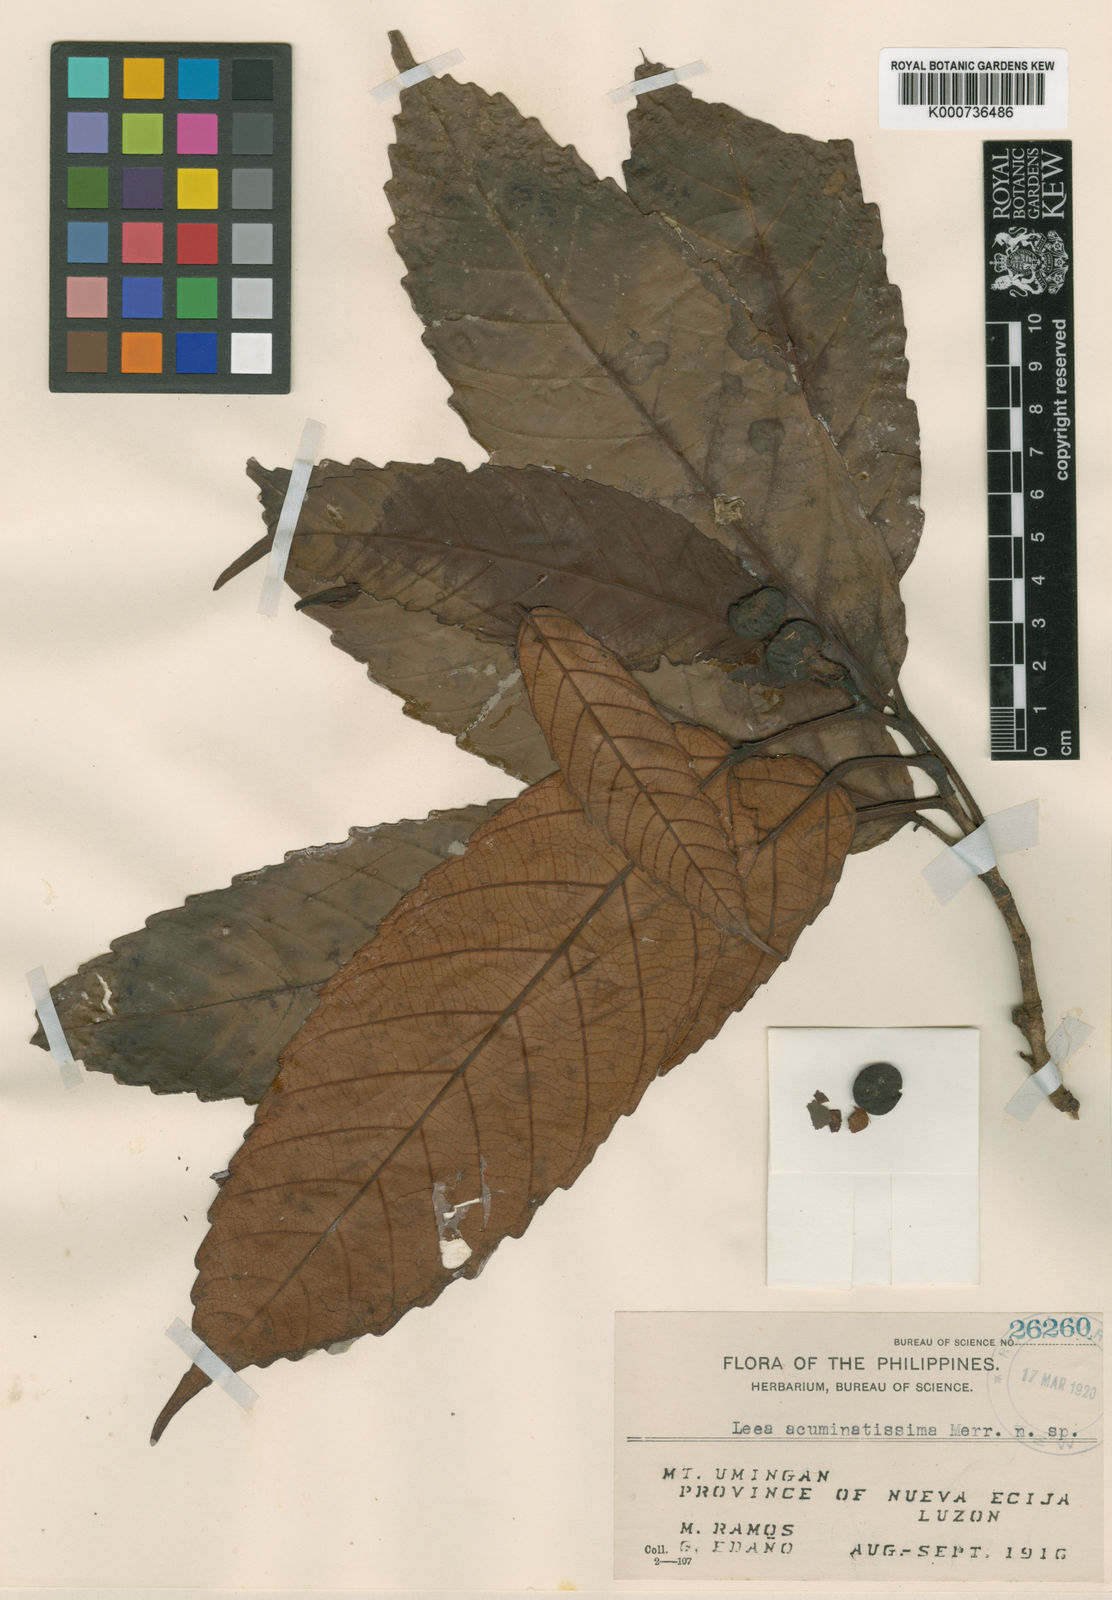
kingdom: Plantae
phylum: Tracheophyta
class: Magnoliopsida
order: Vitales
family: Vitaceae
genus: Leea
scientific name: Leea acuminatissima
